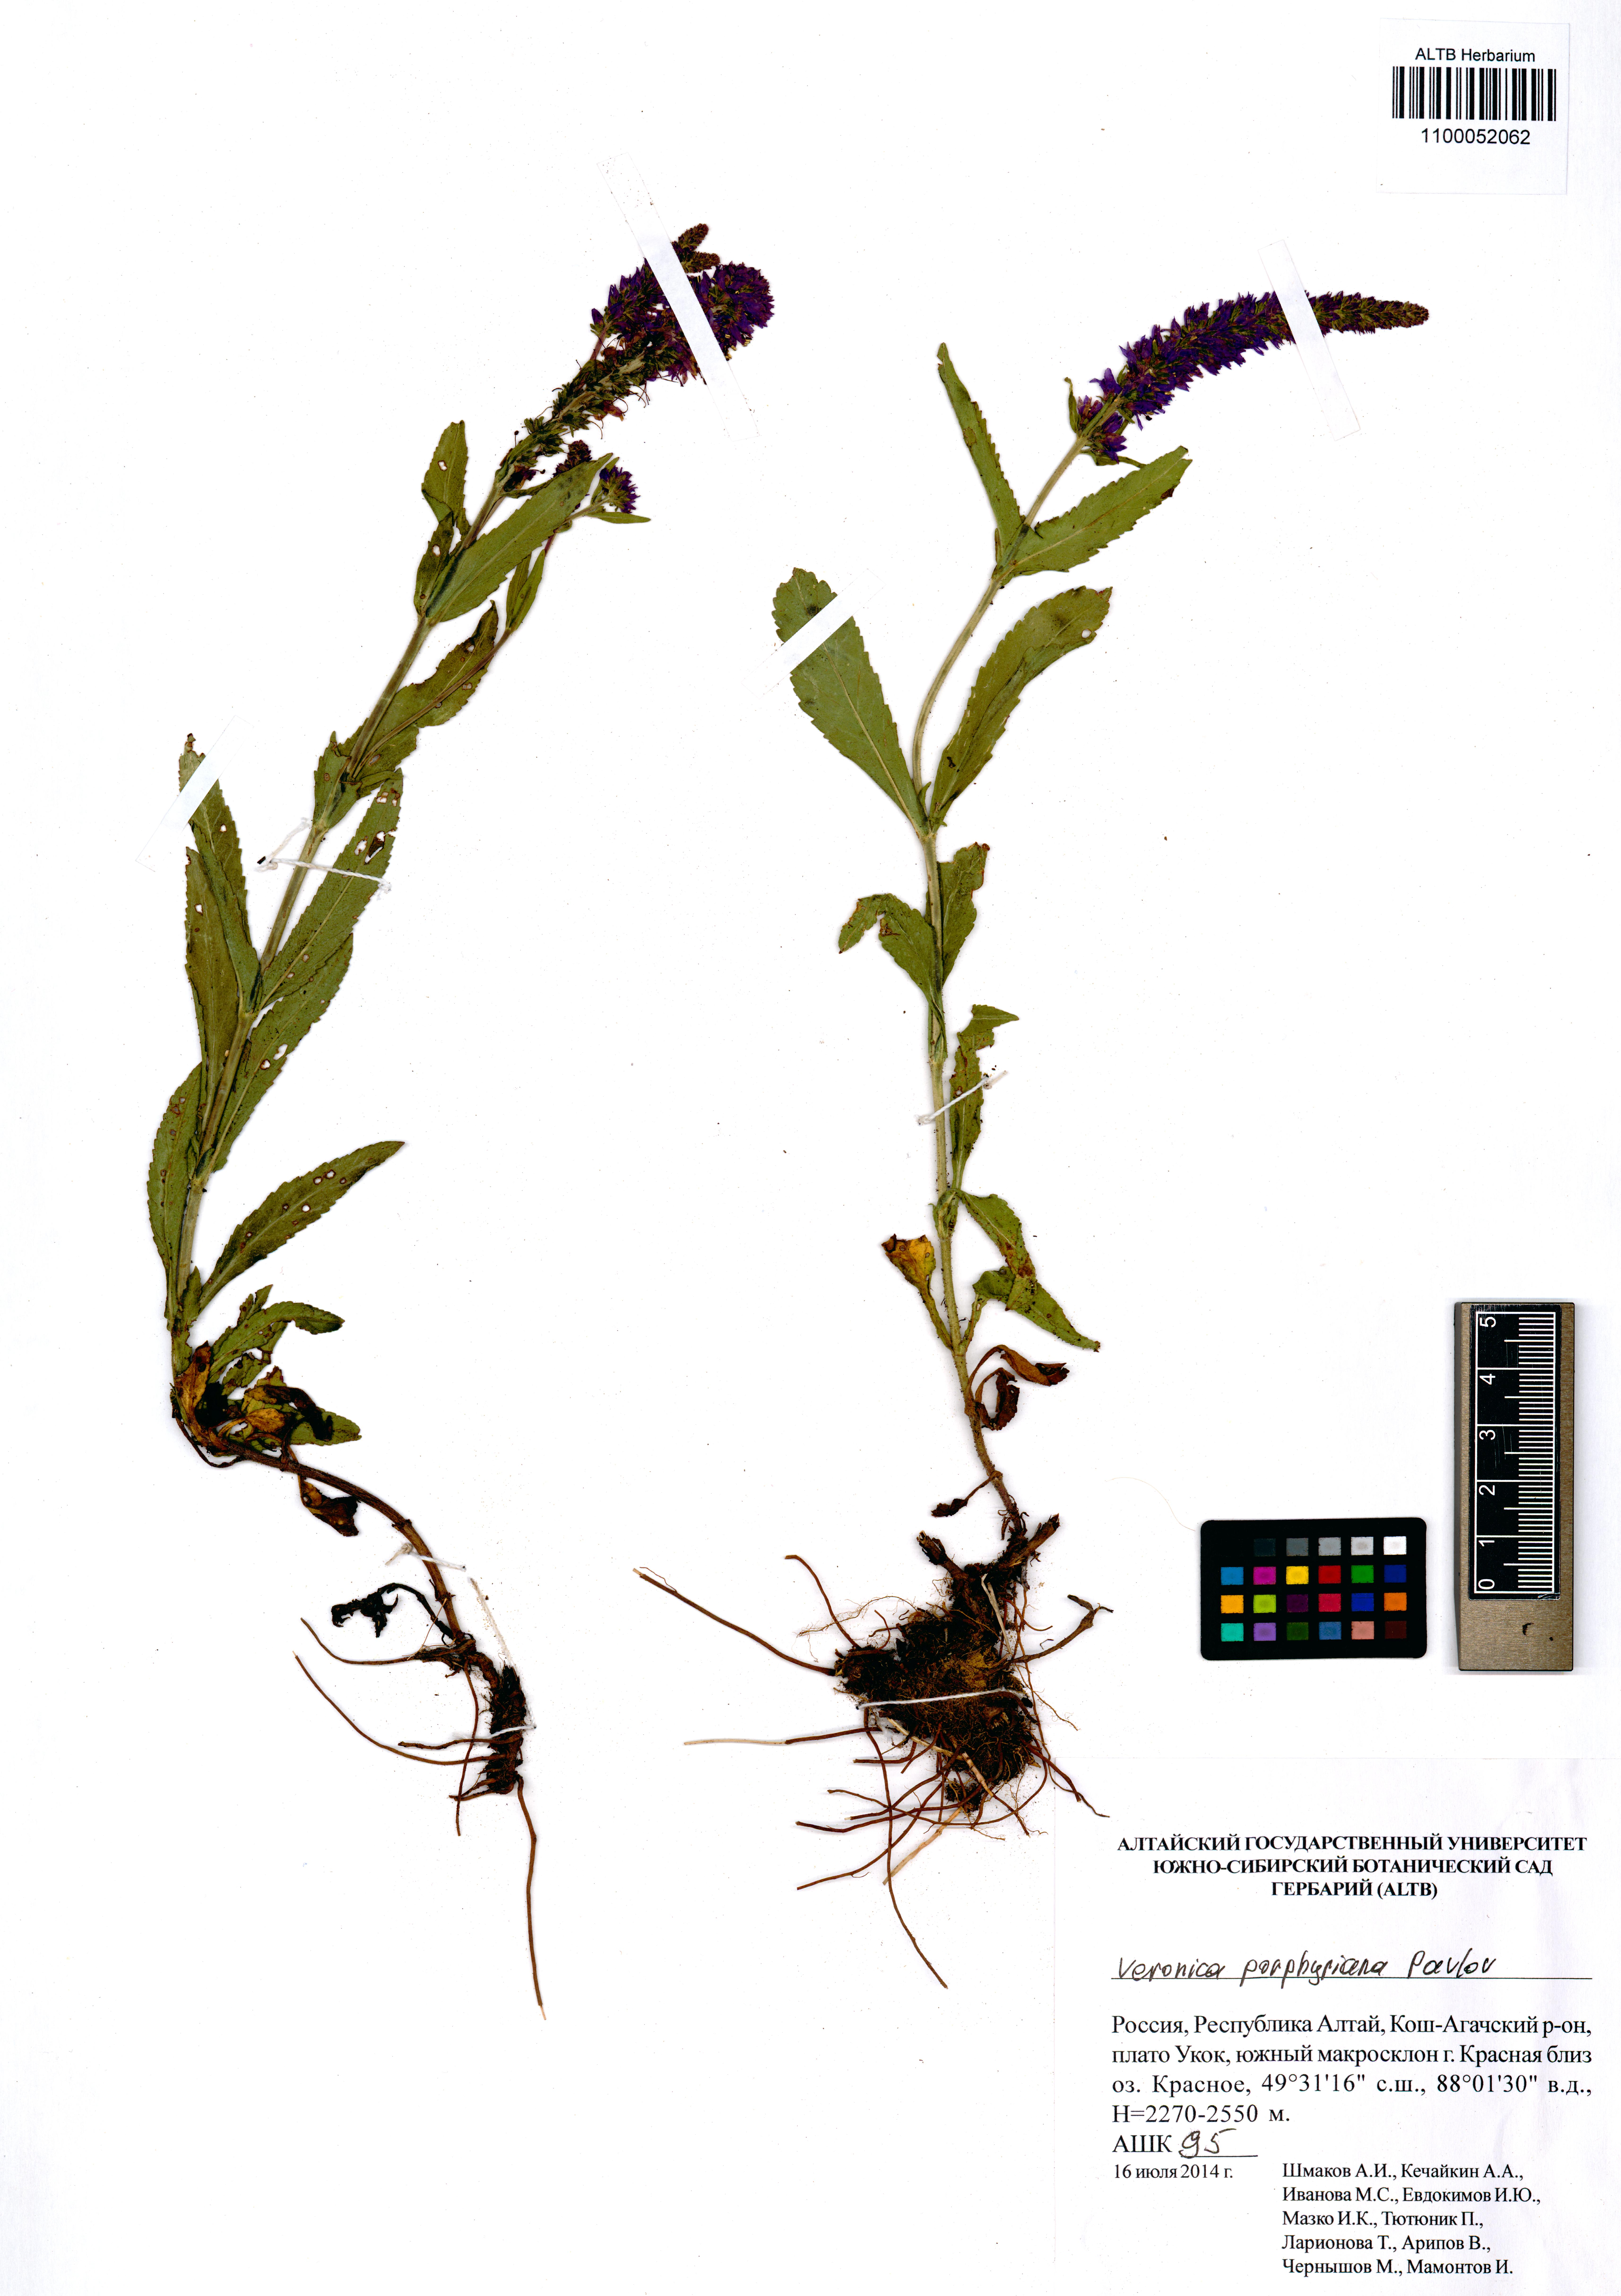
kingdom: Plantae
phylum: Tracheophyta
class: Magnoliopsida
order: Lamiales
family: Plantaginaceae
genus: Veronica
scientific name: Veronica porphyriana
